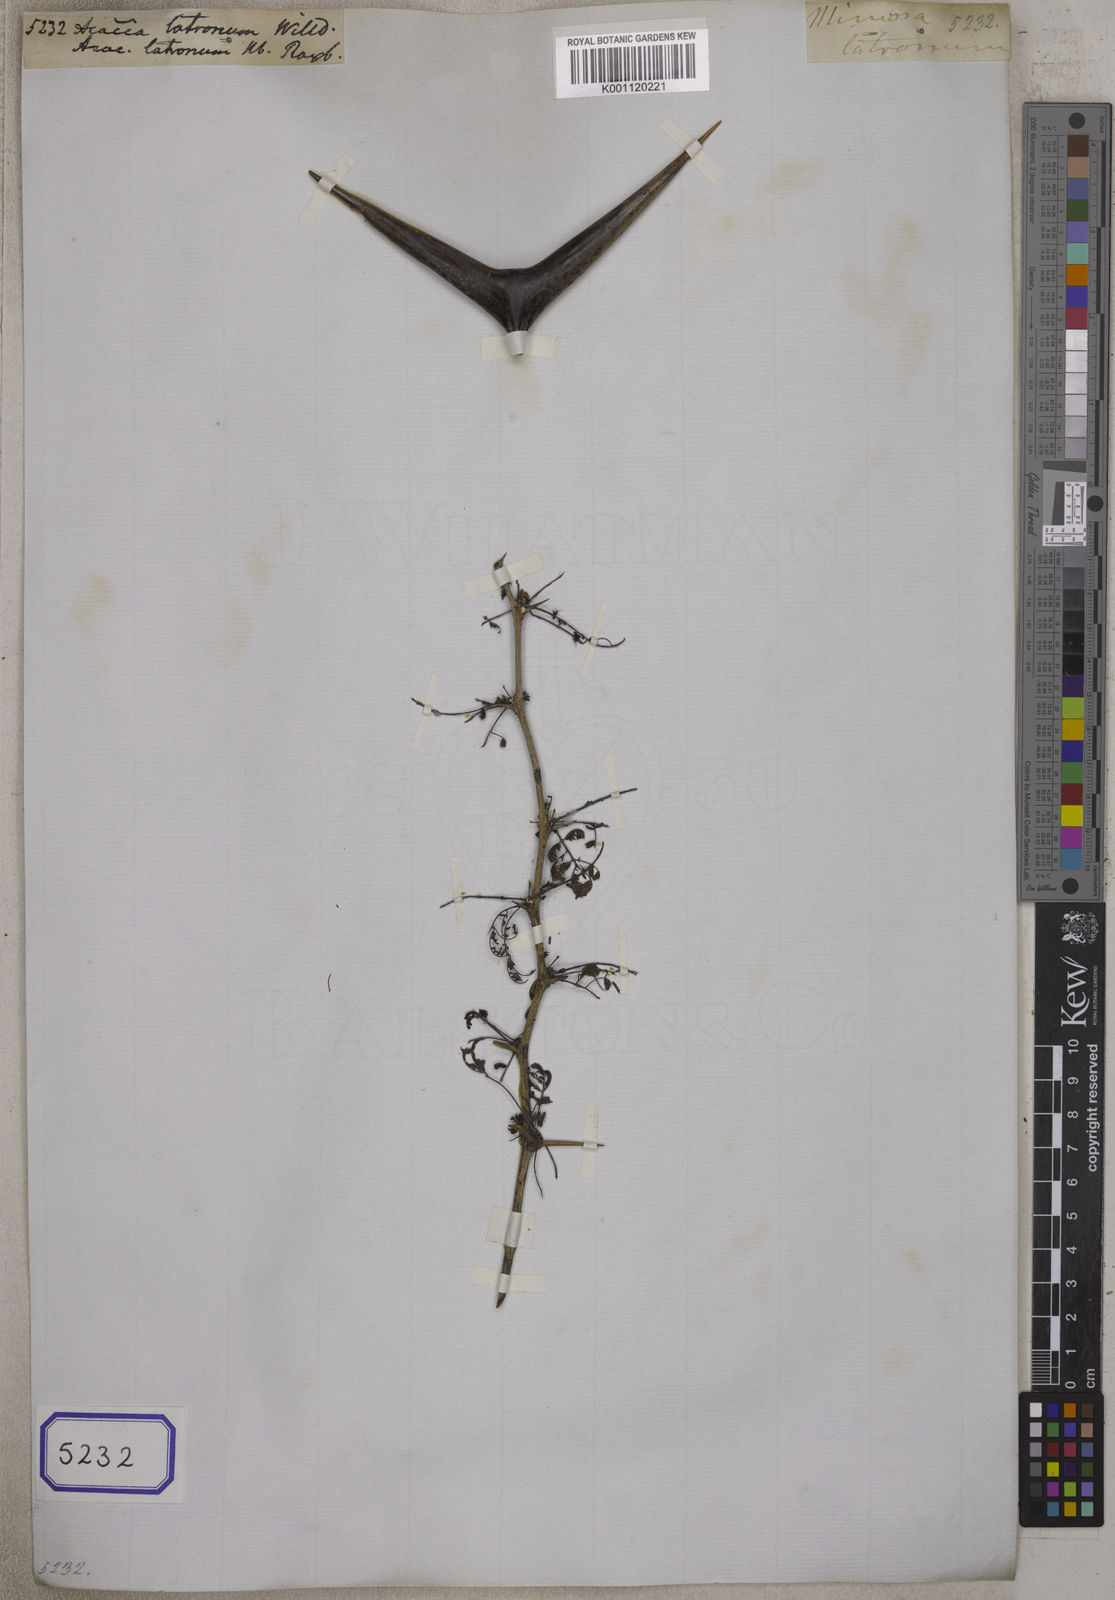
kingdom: Plantae
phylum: Tracheophyta
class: Magnoliopsida
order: Fabales
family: Fabaceae
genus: Vachellia
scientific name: Vachellia horrida
